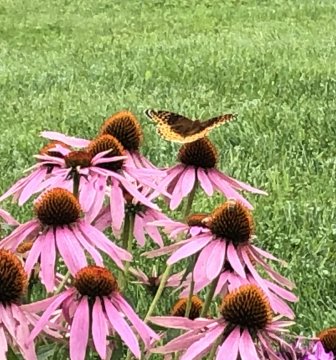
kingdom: Animalia
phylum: Arthropoda
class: Insecta
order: Lepidoptera
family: Nymphalidae
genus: Speyeria
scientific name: Speyeria cybele
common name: Great Spangled Fritillary
